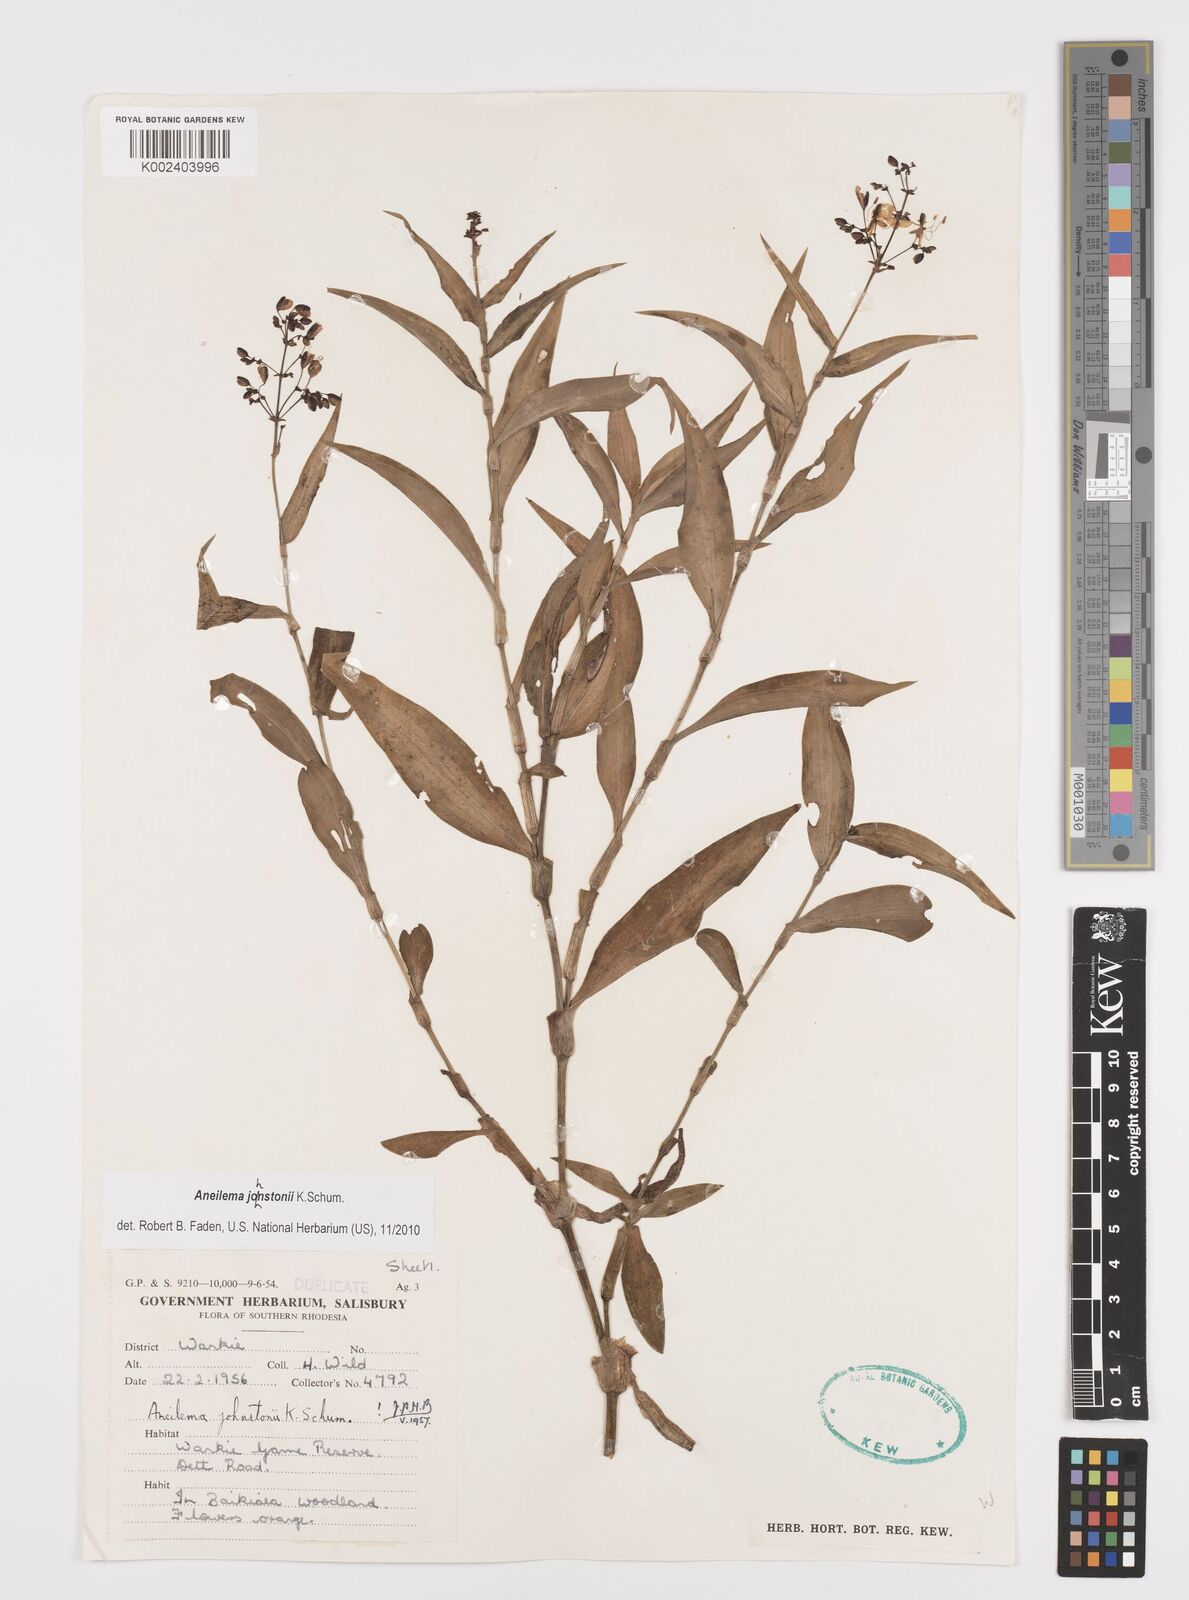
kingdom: Plantae
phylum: Tracheophyta
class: Liliopsida
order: Commelinales
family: Commelinaceae
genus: Aneilema
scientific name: Aneilema johnstonii
